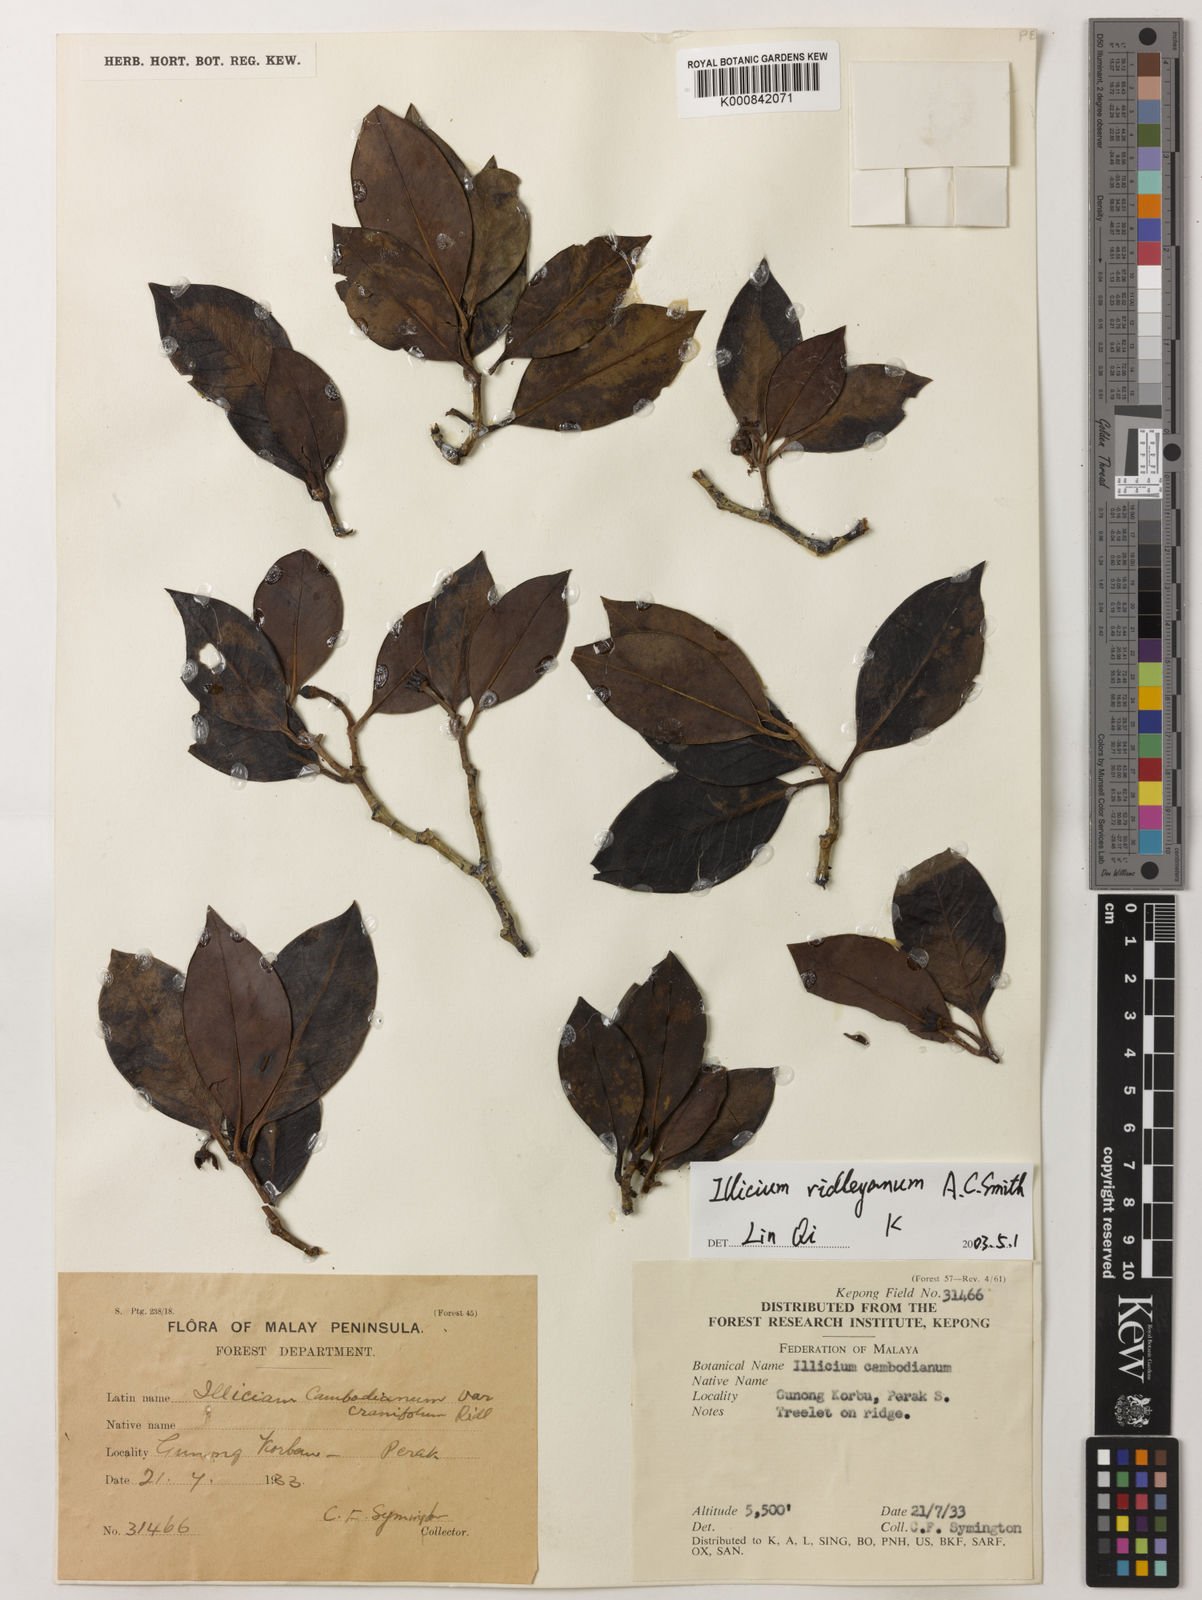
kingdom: Plantae
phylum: Tracheophyta
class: Magnoliopsida
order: Austrobaileyales
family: Schisandraceae
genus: Illicium
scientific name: Illicium ridleyanum
